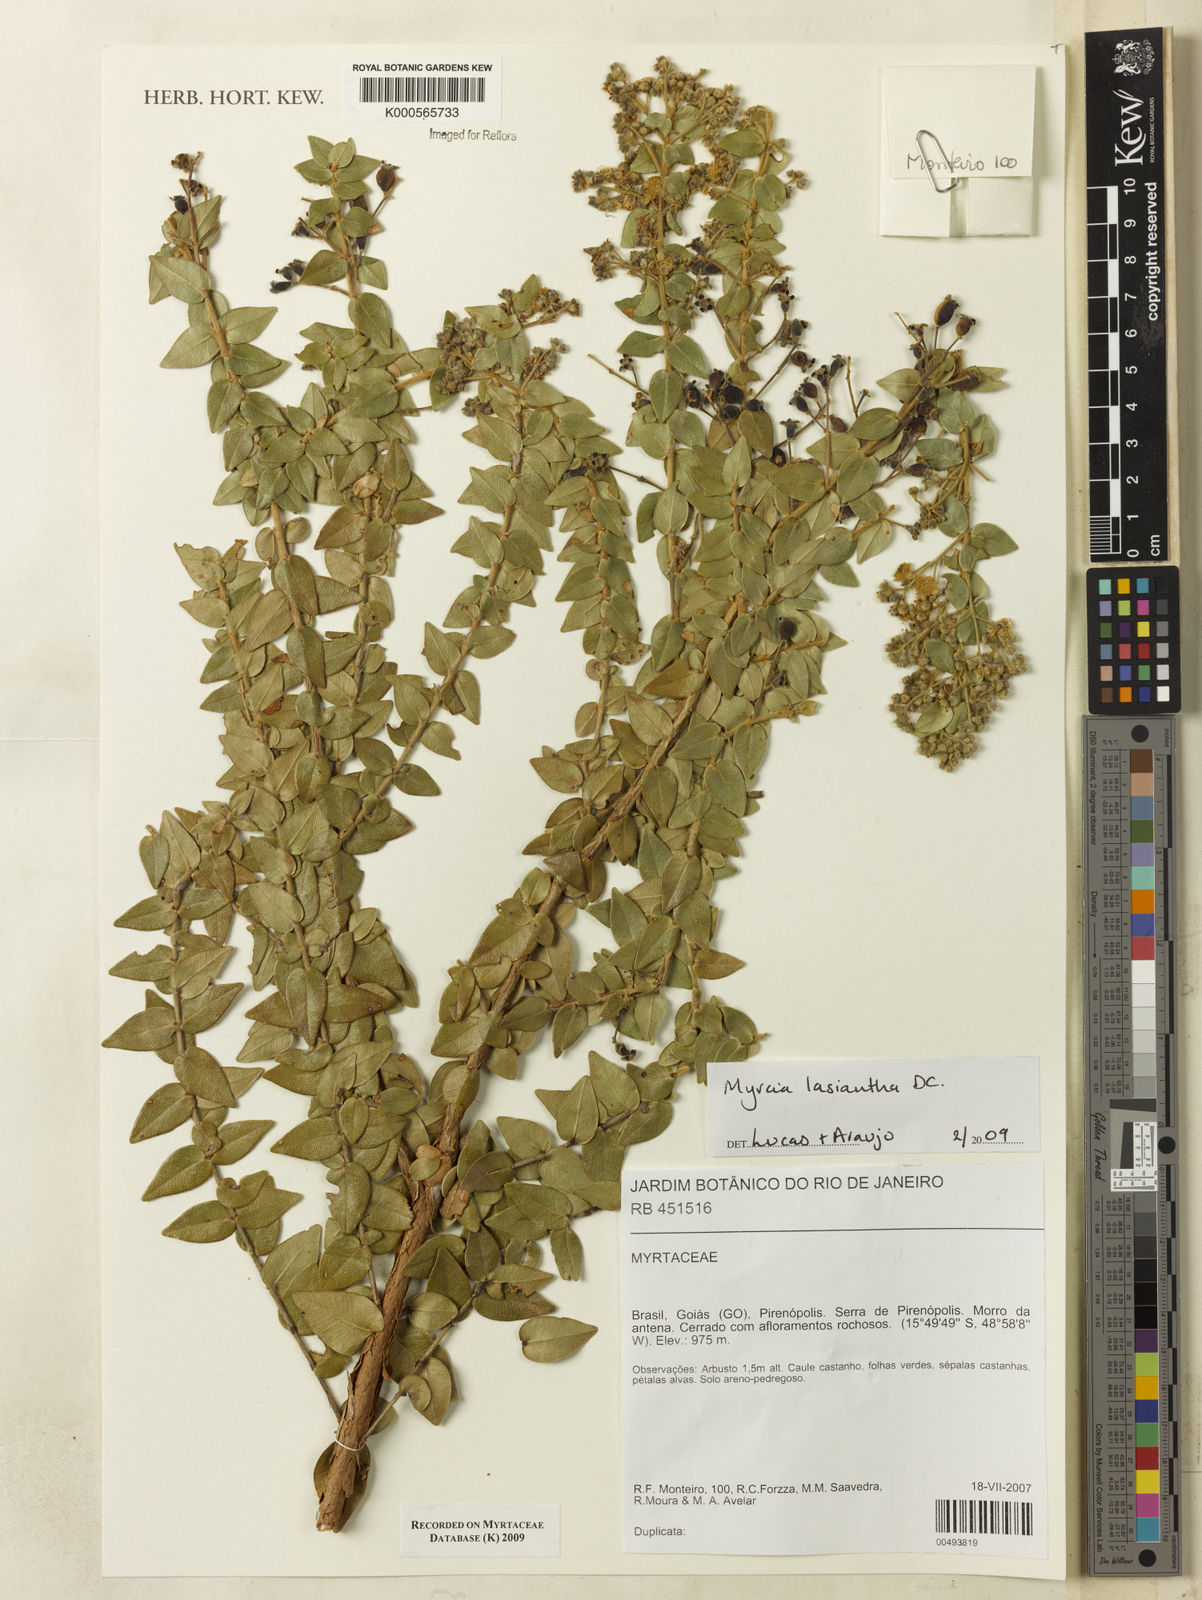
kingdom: Plantae
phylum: Tracheophyta
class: Magnoliopsida
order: Myrtales
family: Myrtaceae
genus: Myrcia
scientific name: Myrcia lasiantha
